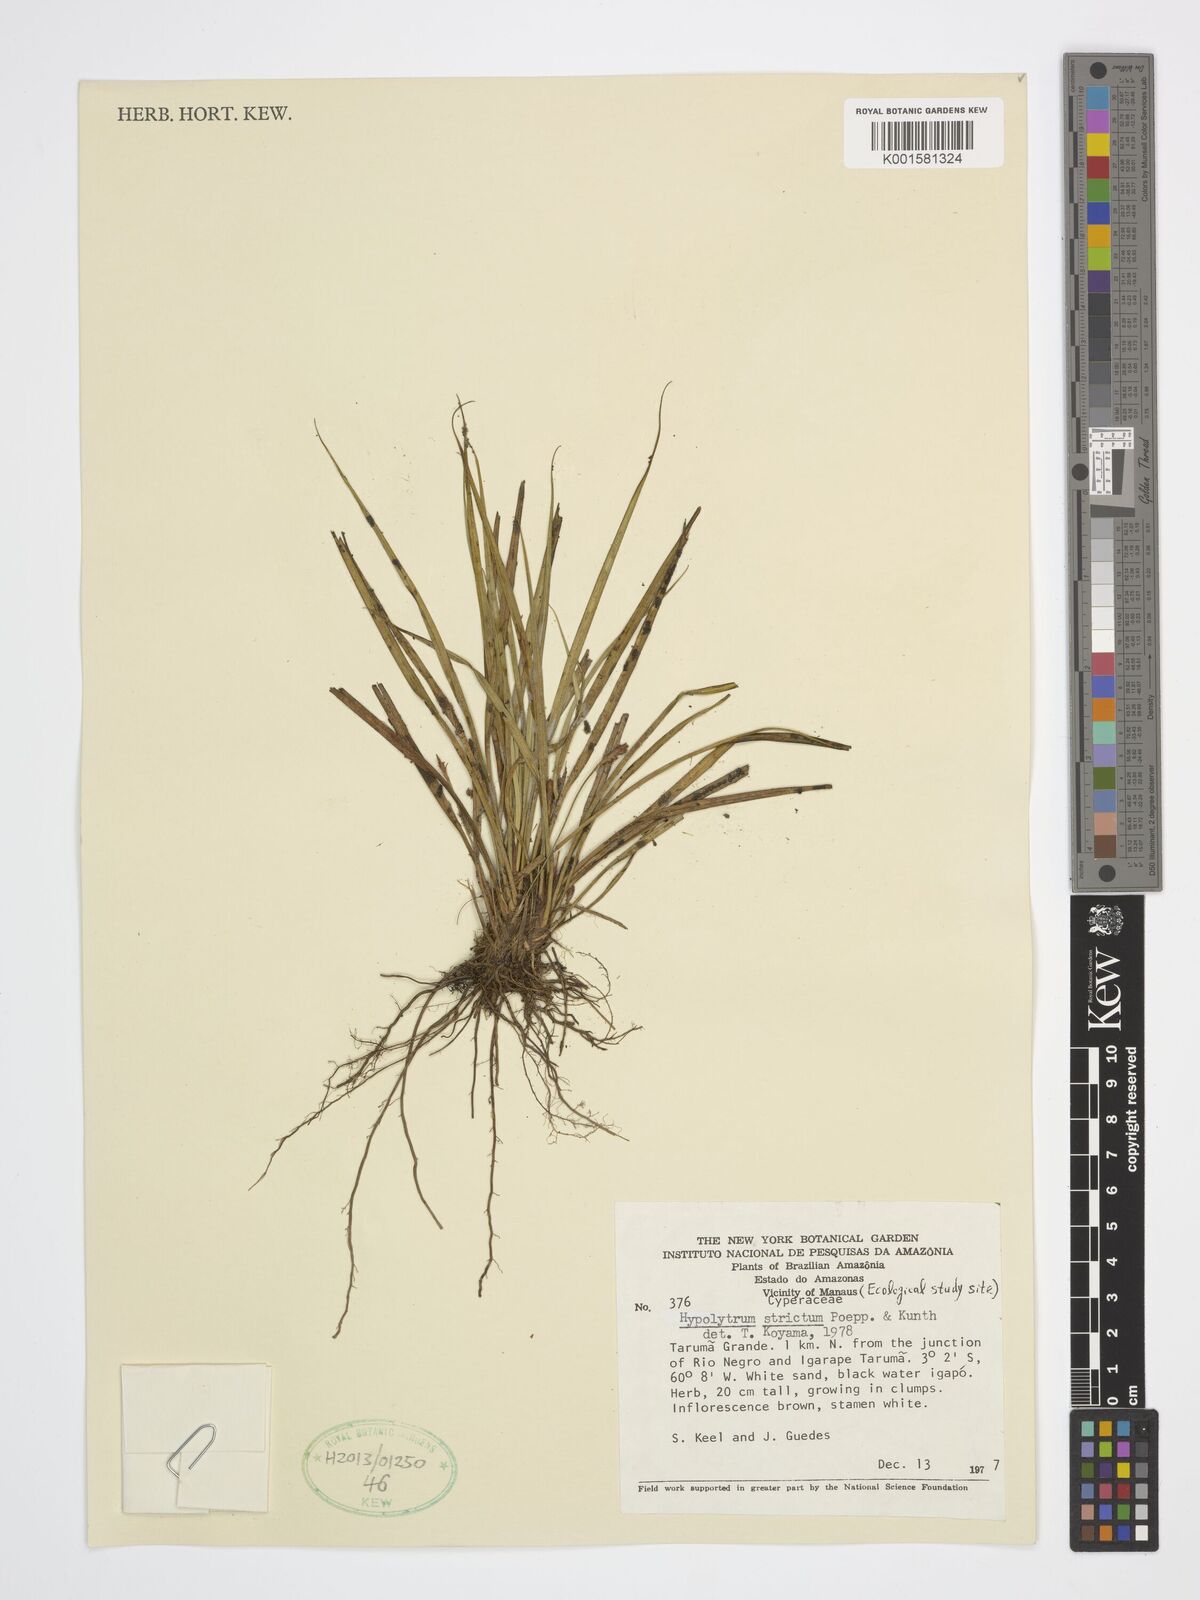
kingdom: Plantae
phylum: Tracheophyta
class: Liliopsida
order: Poales
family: Cyperaceae
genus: Hypolytrum
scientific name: Hypolytrum strictum
